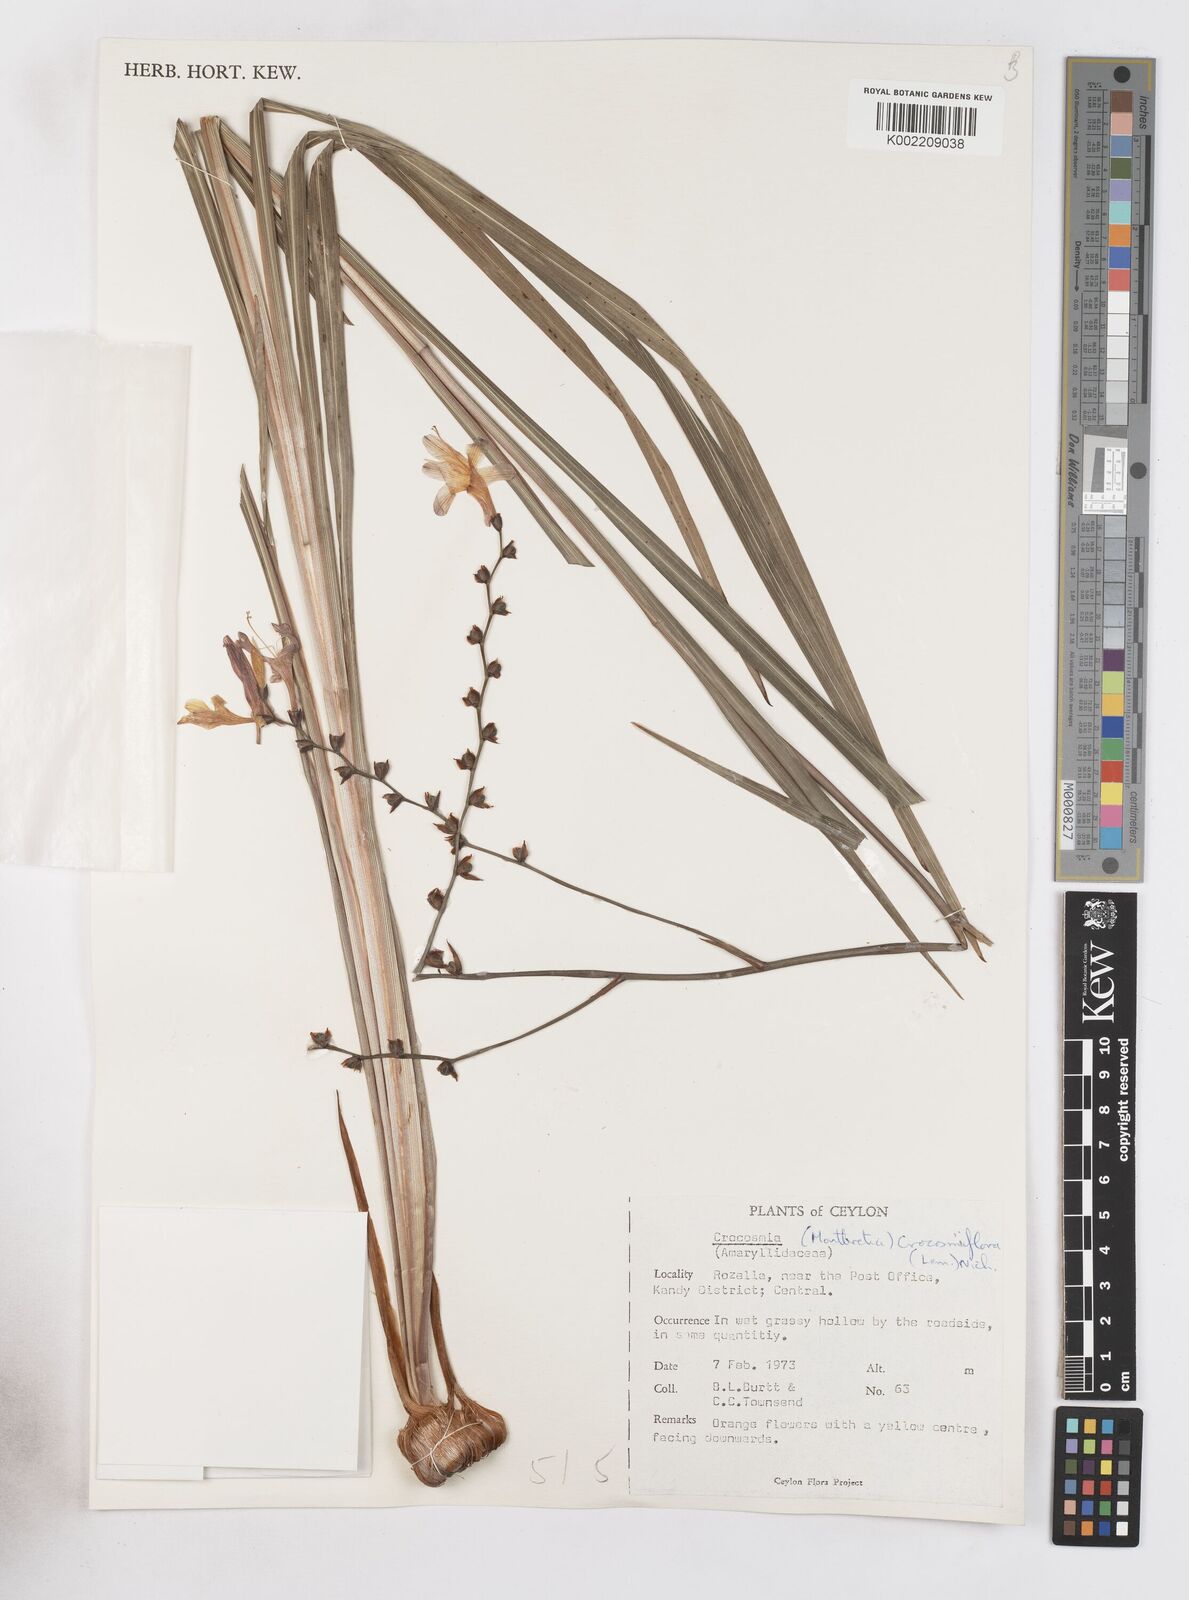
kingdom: Plantae
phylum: Tracheophyta
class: Liliopsida
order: Asparagales
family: Iridaceae
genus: Crocosmia
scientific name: Crocosmia crocosmiiflora
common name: Montbretia
